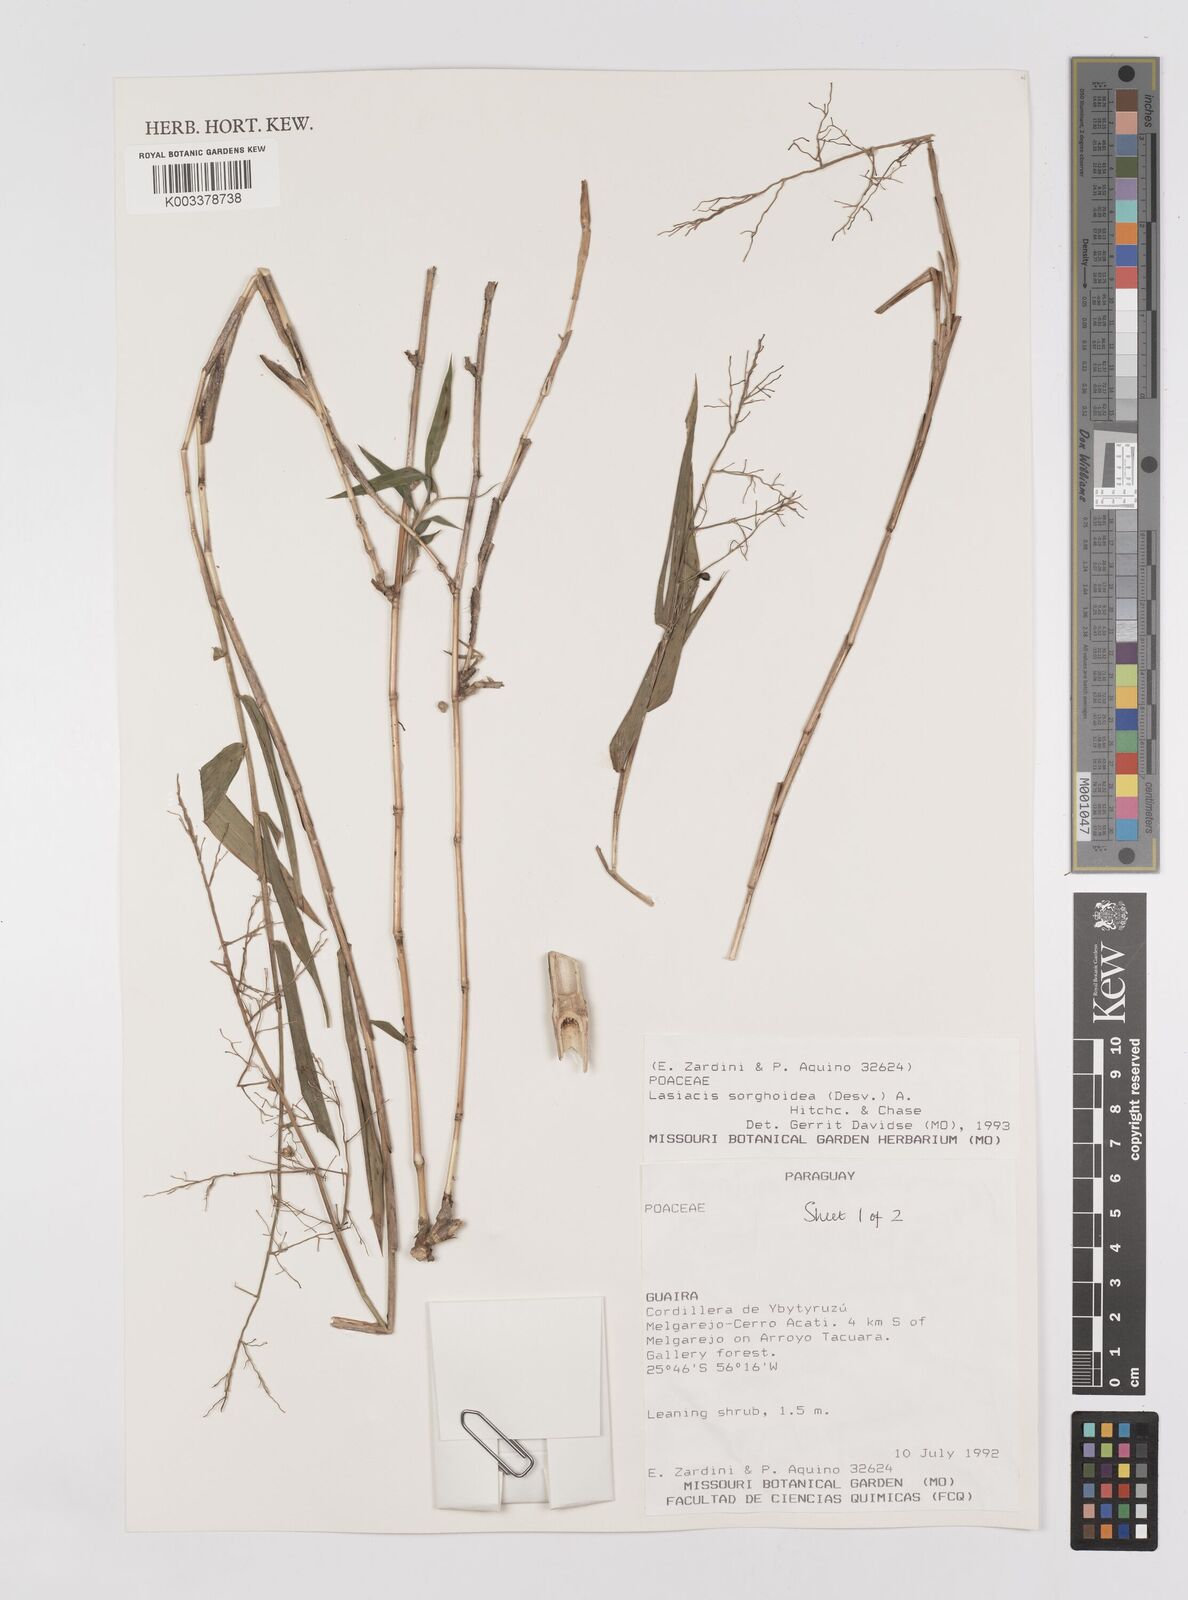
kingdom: Plantae
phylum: Tracheophyta
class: Liliopsida
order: Poales
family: Poaceae
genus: Lasiacis
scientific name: Lasiacis maculata
